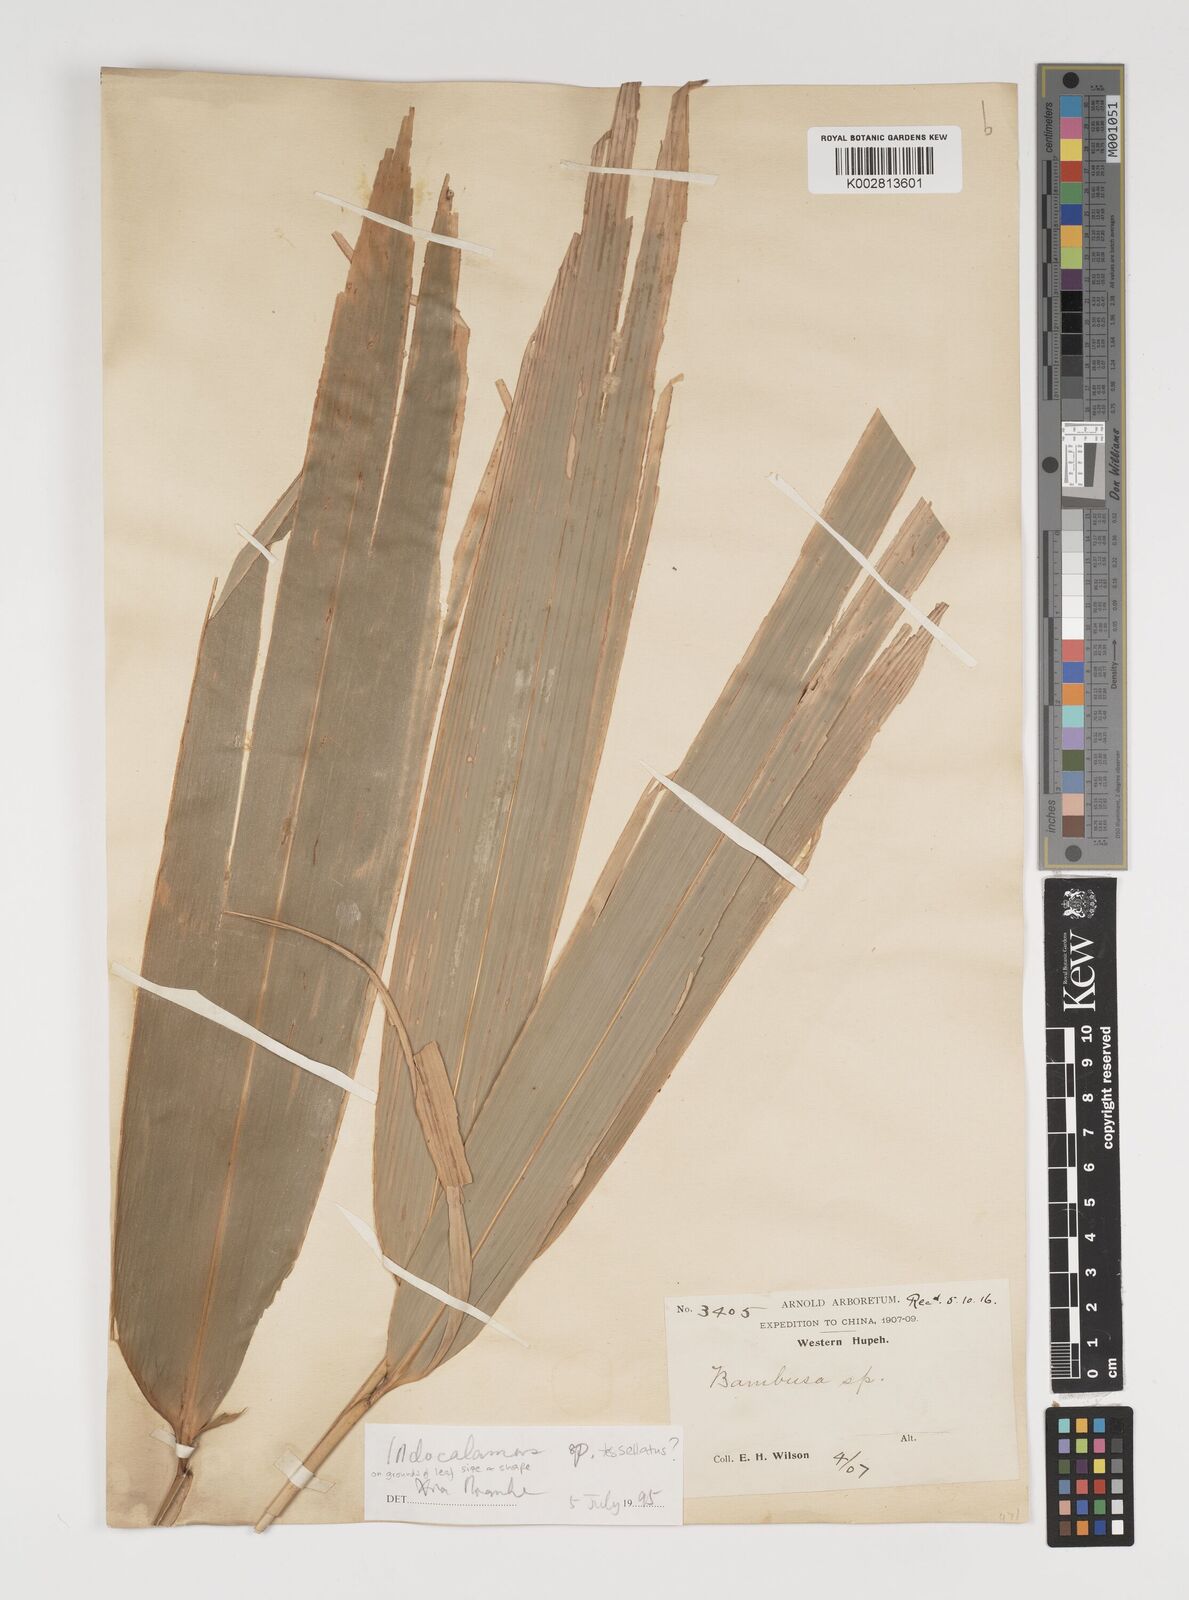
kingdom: Plantae
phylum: Tracheophyta
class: Liliopsida
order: Poales
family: Poaceae
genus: Indocalamus
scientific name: Indocalamus tessellatus
